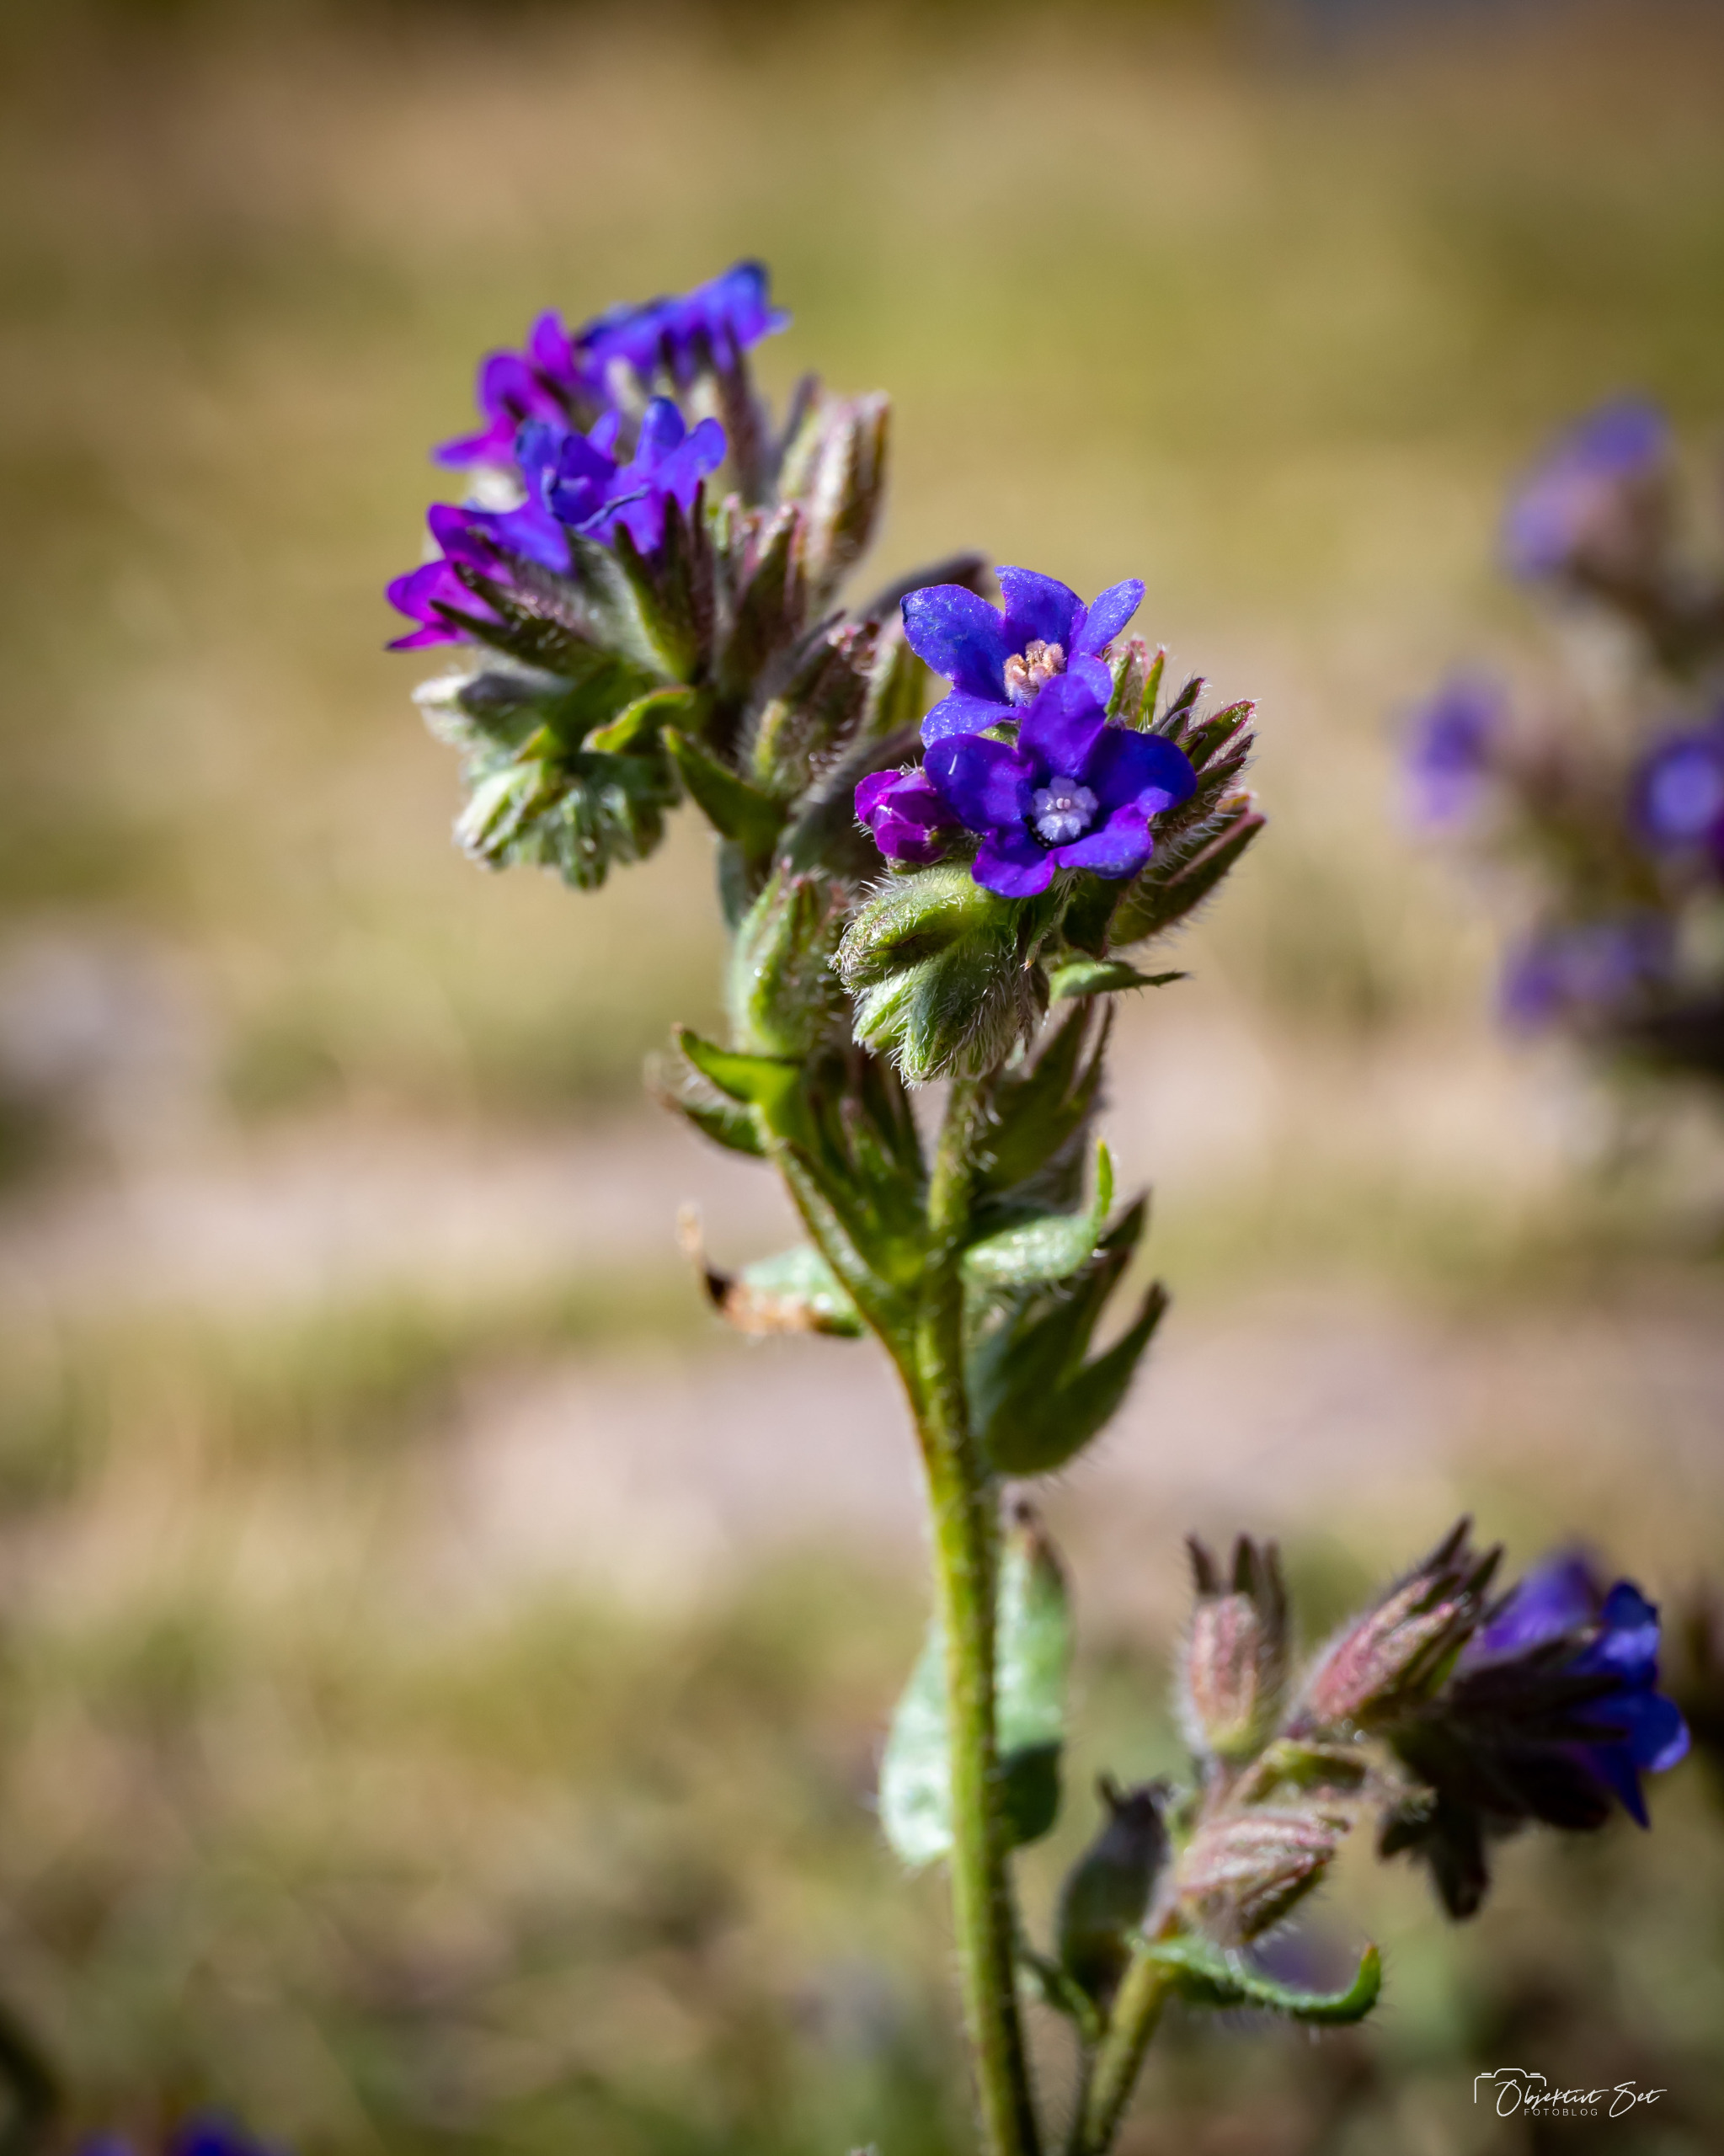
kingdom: Plantae
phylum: Tracheophyta
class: Magnoliopsida
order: Boraginales
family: Boraginaceae
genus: Anchusa
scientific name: Anchusa officinalis
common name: Læge-oksetunge
